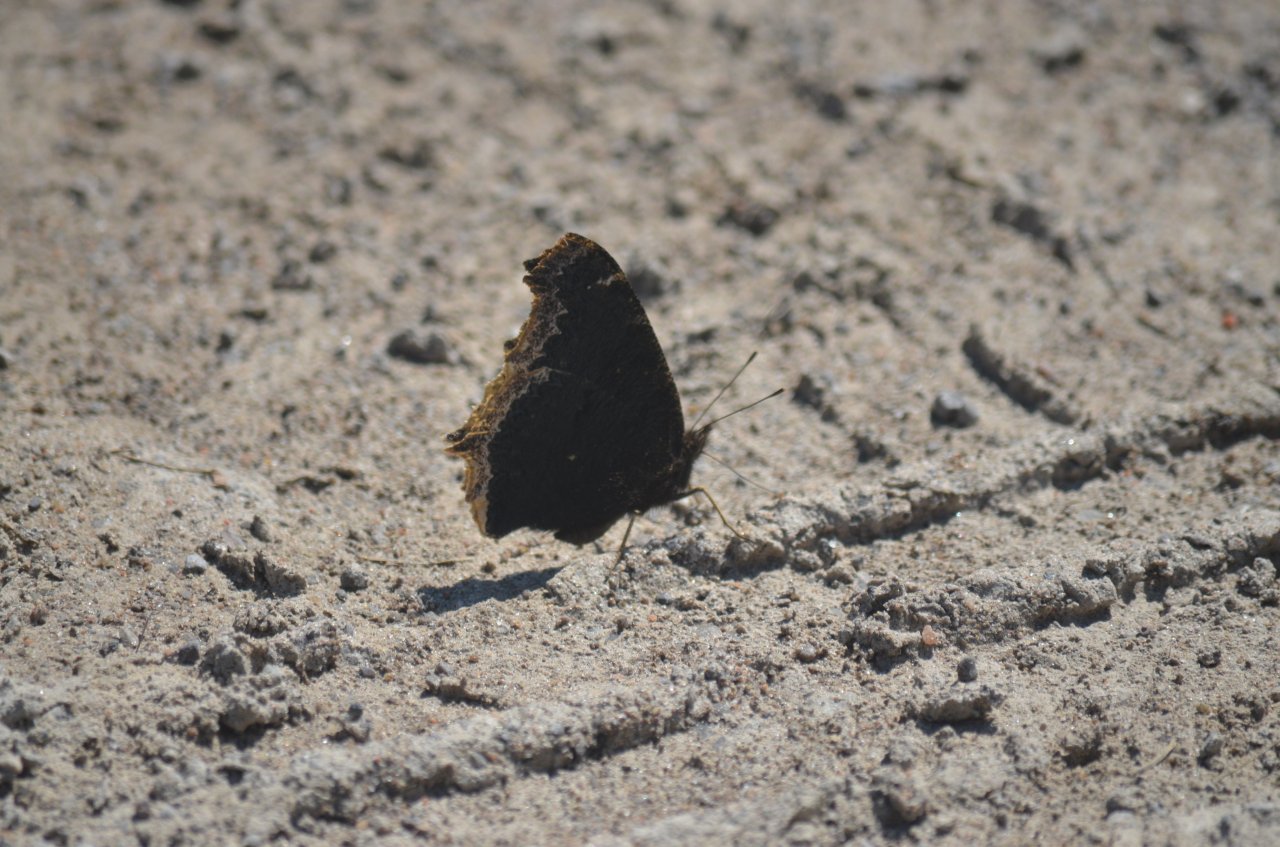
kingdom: Animalia
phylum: Arthropoda
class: Insecta
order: Lepidoptera
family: Nymphalidae
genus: Nymphalis
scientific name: Nymphalis antiopa
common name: Mourning Cloak
